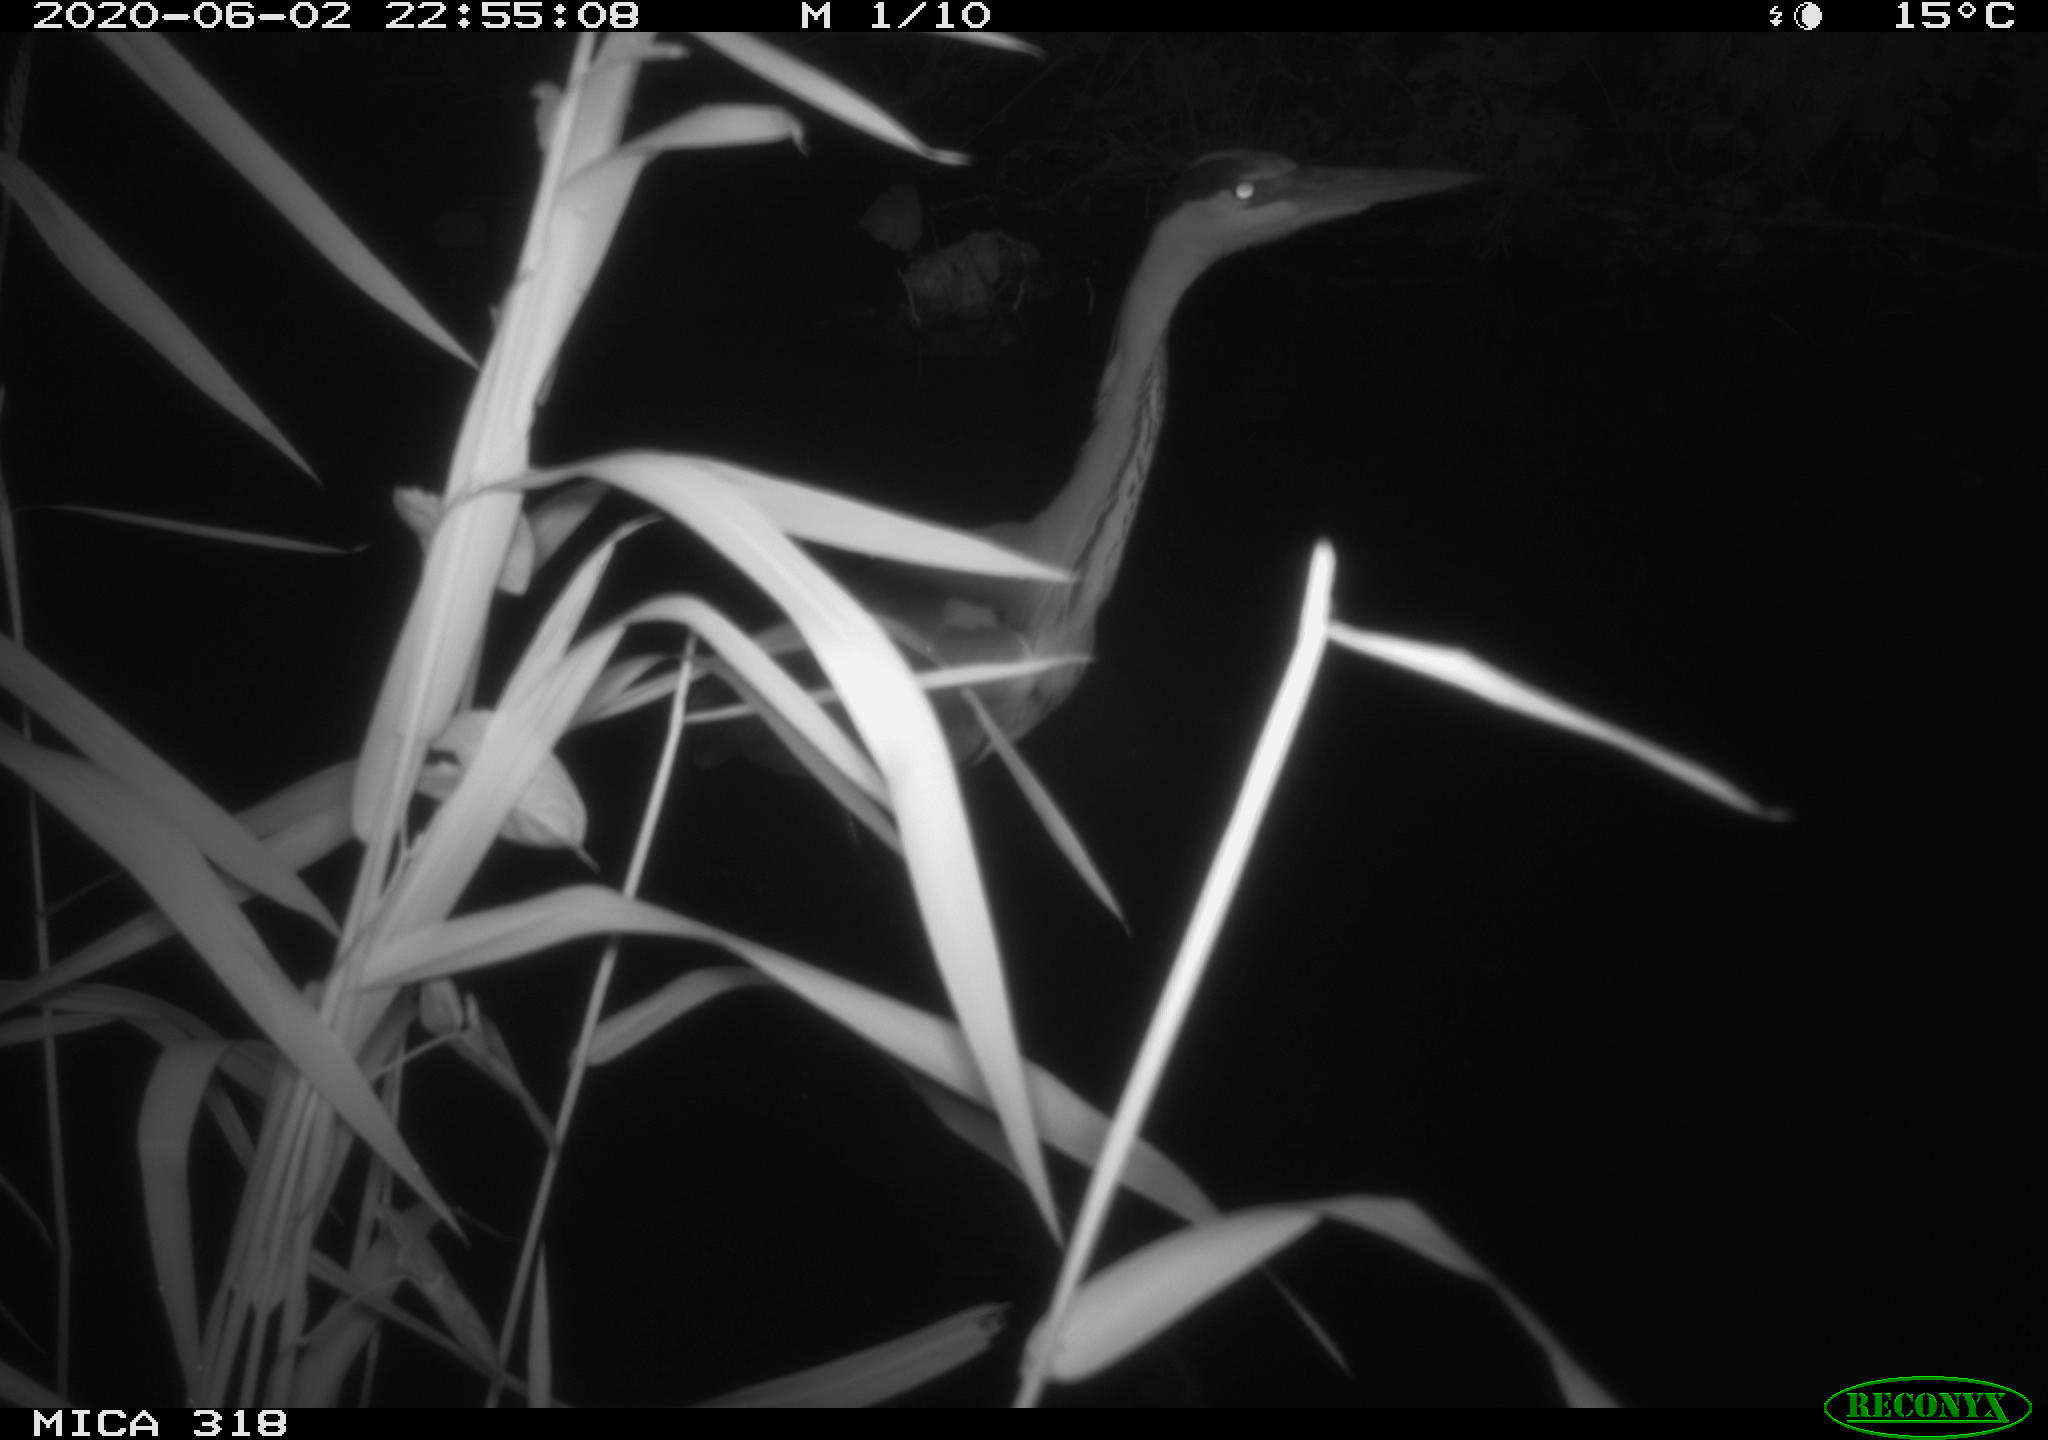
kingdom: Animalia
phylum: Chordata
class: Aves
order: Pelecaniformes
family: Ardeidae
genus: Ardea
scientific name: Ardea cinerea
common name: Grey heron
